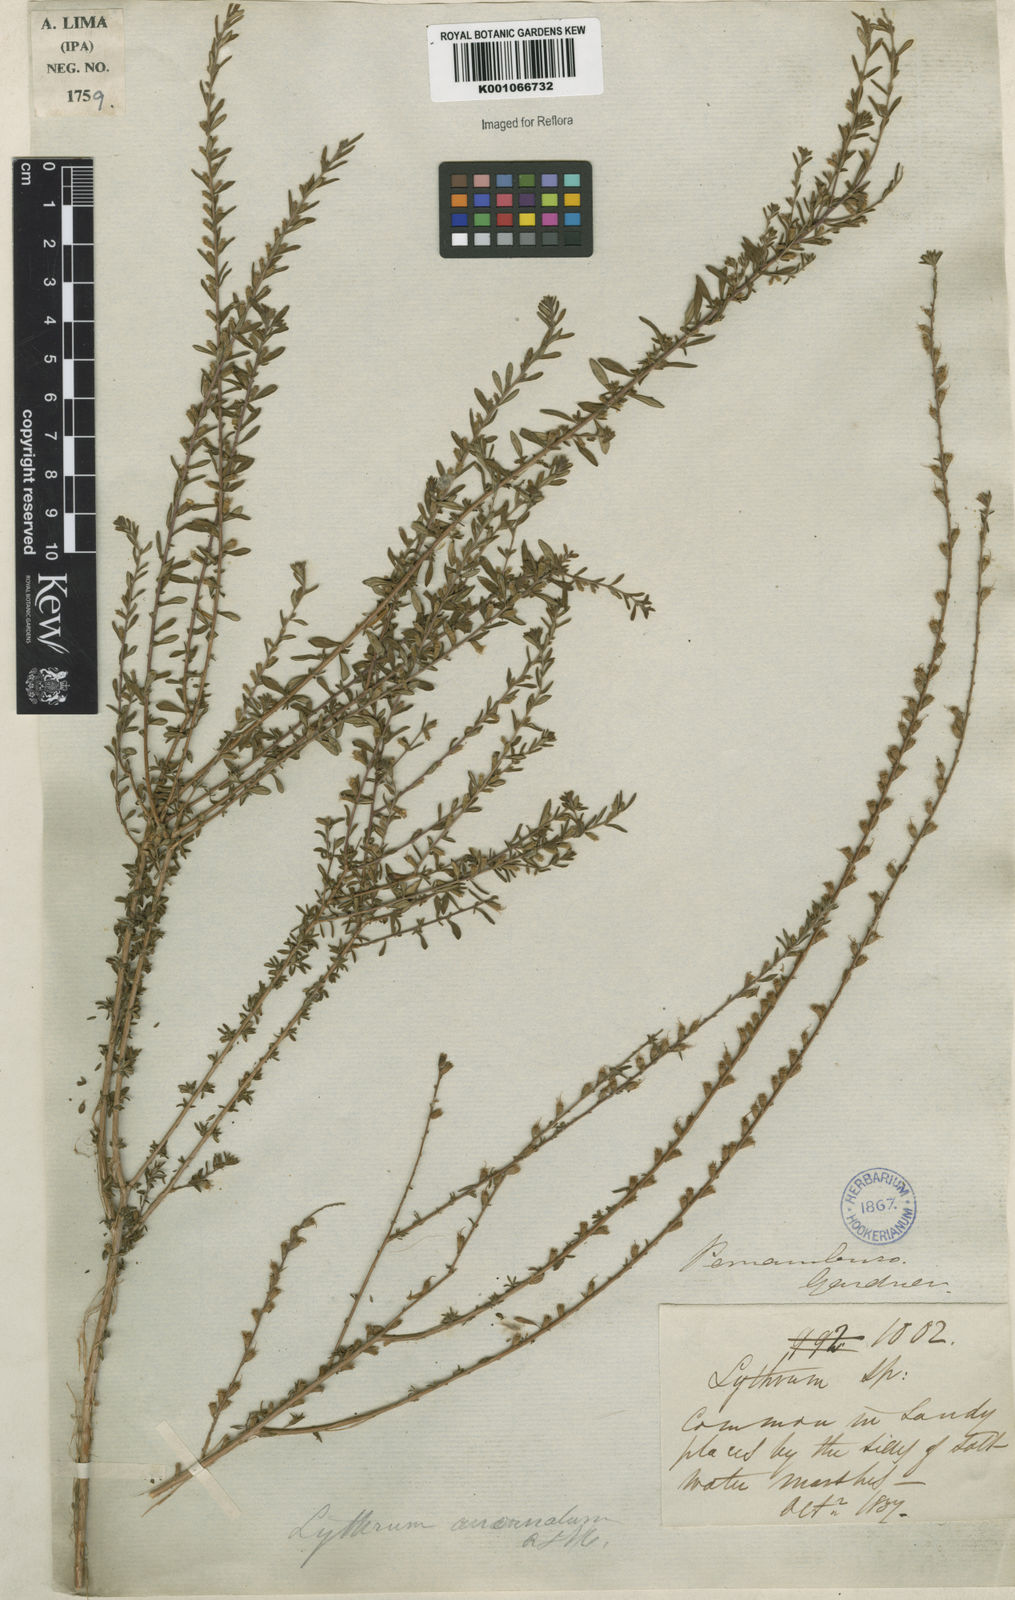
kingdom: Plantae
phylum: Tracheophyta
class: Magnoliopsida
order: Myrtales
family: Lythraceae
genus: Pleurophora
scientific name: Pleurophora anomala
